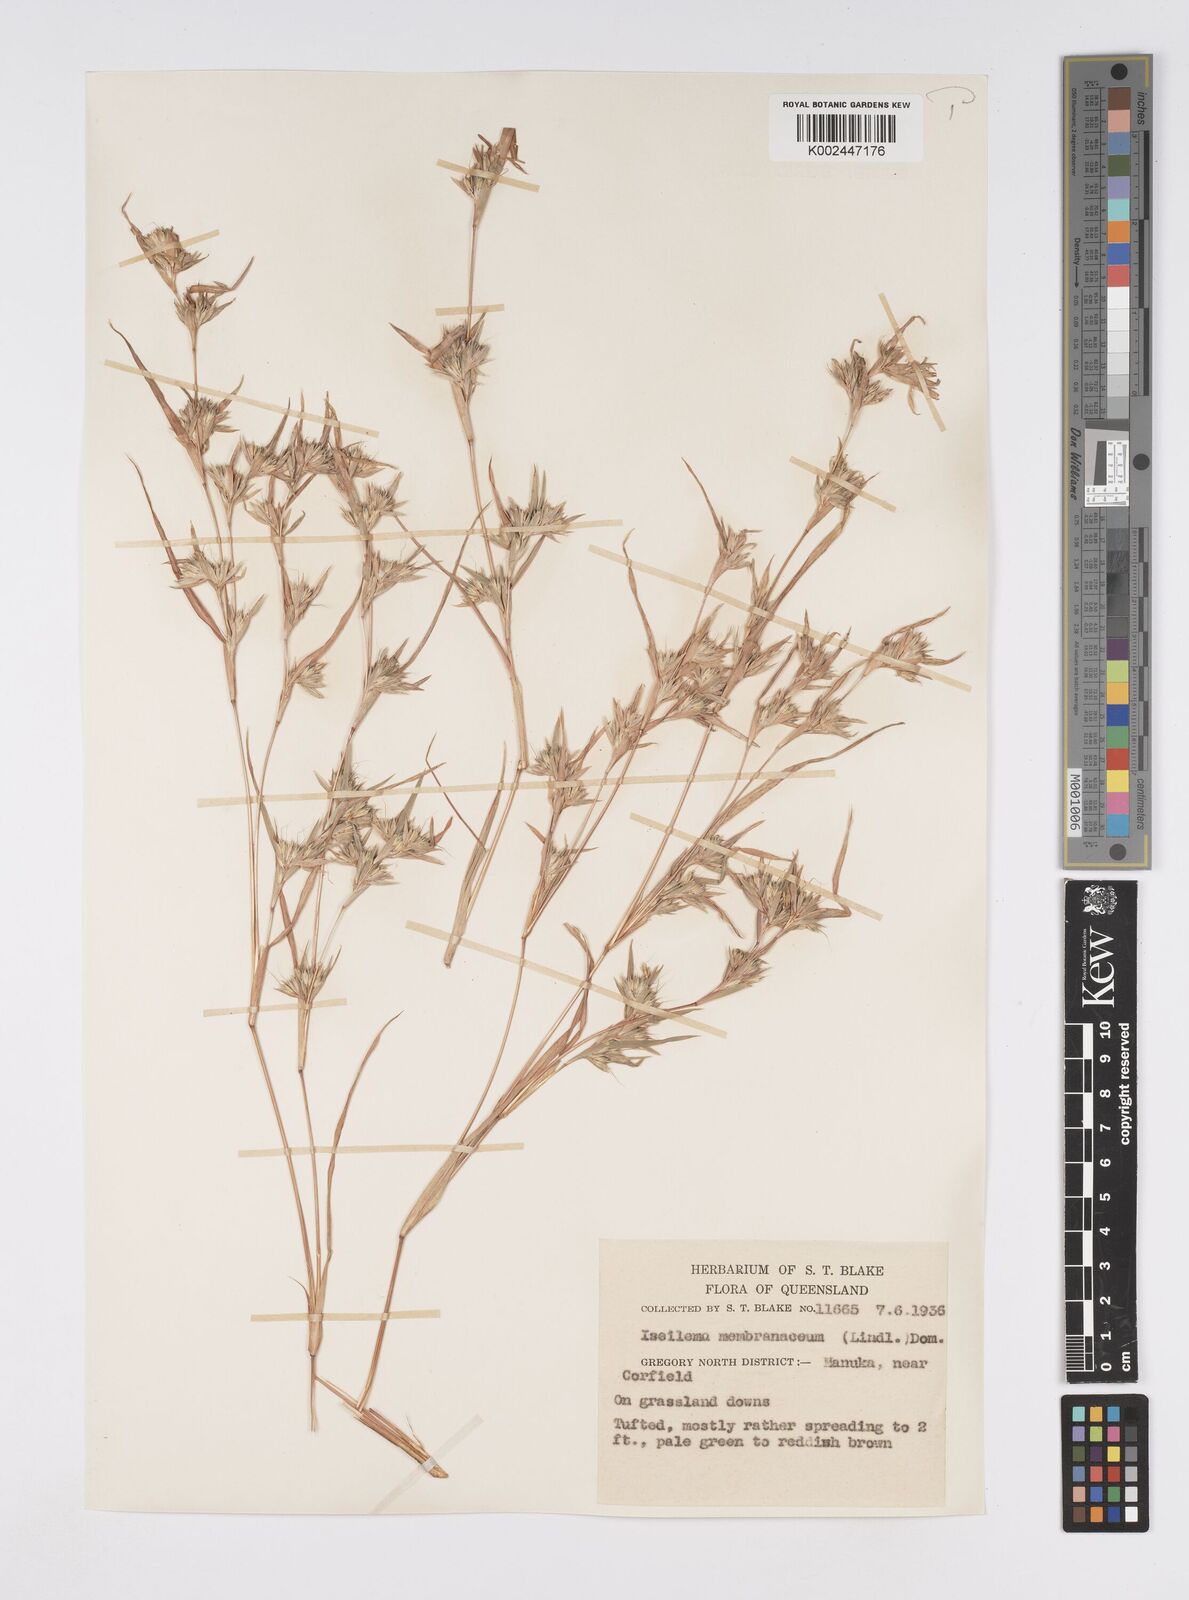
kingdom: Plantae
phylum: Tracheophyta
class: Liliopsida
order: Poales
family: Poaceae
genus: Iseilema
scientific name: Iseilema membranaceum
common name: Small flinders grass
